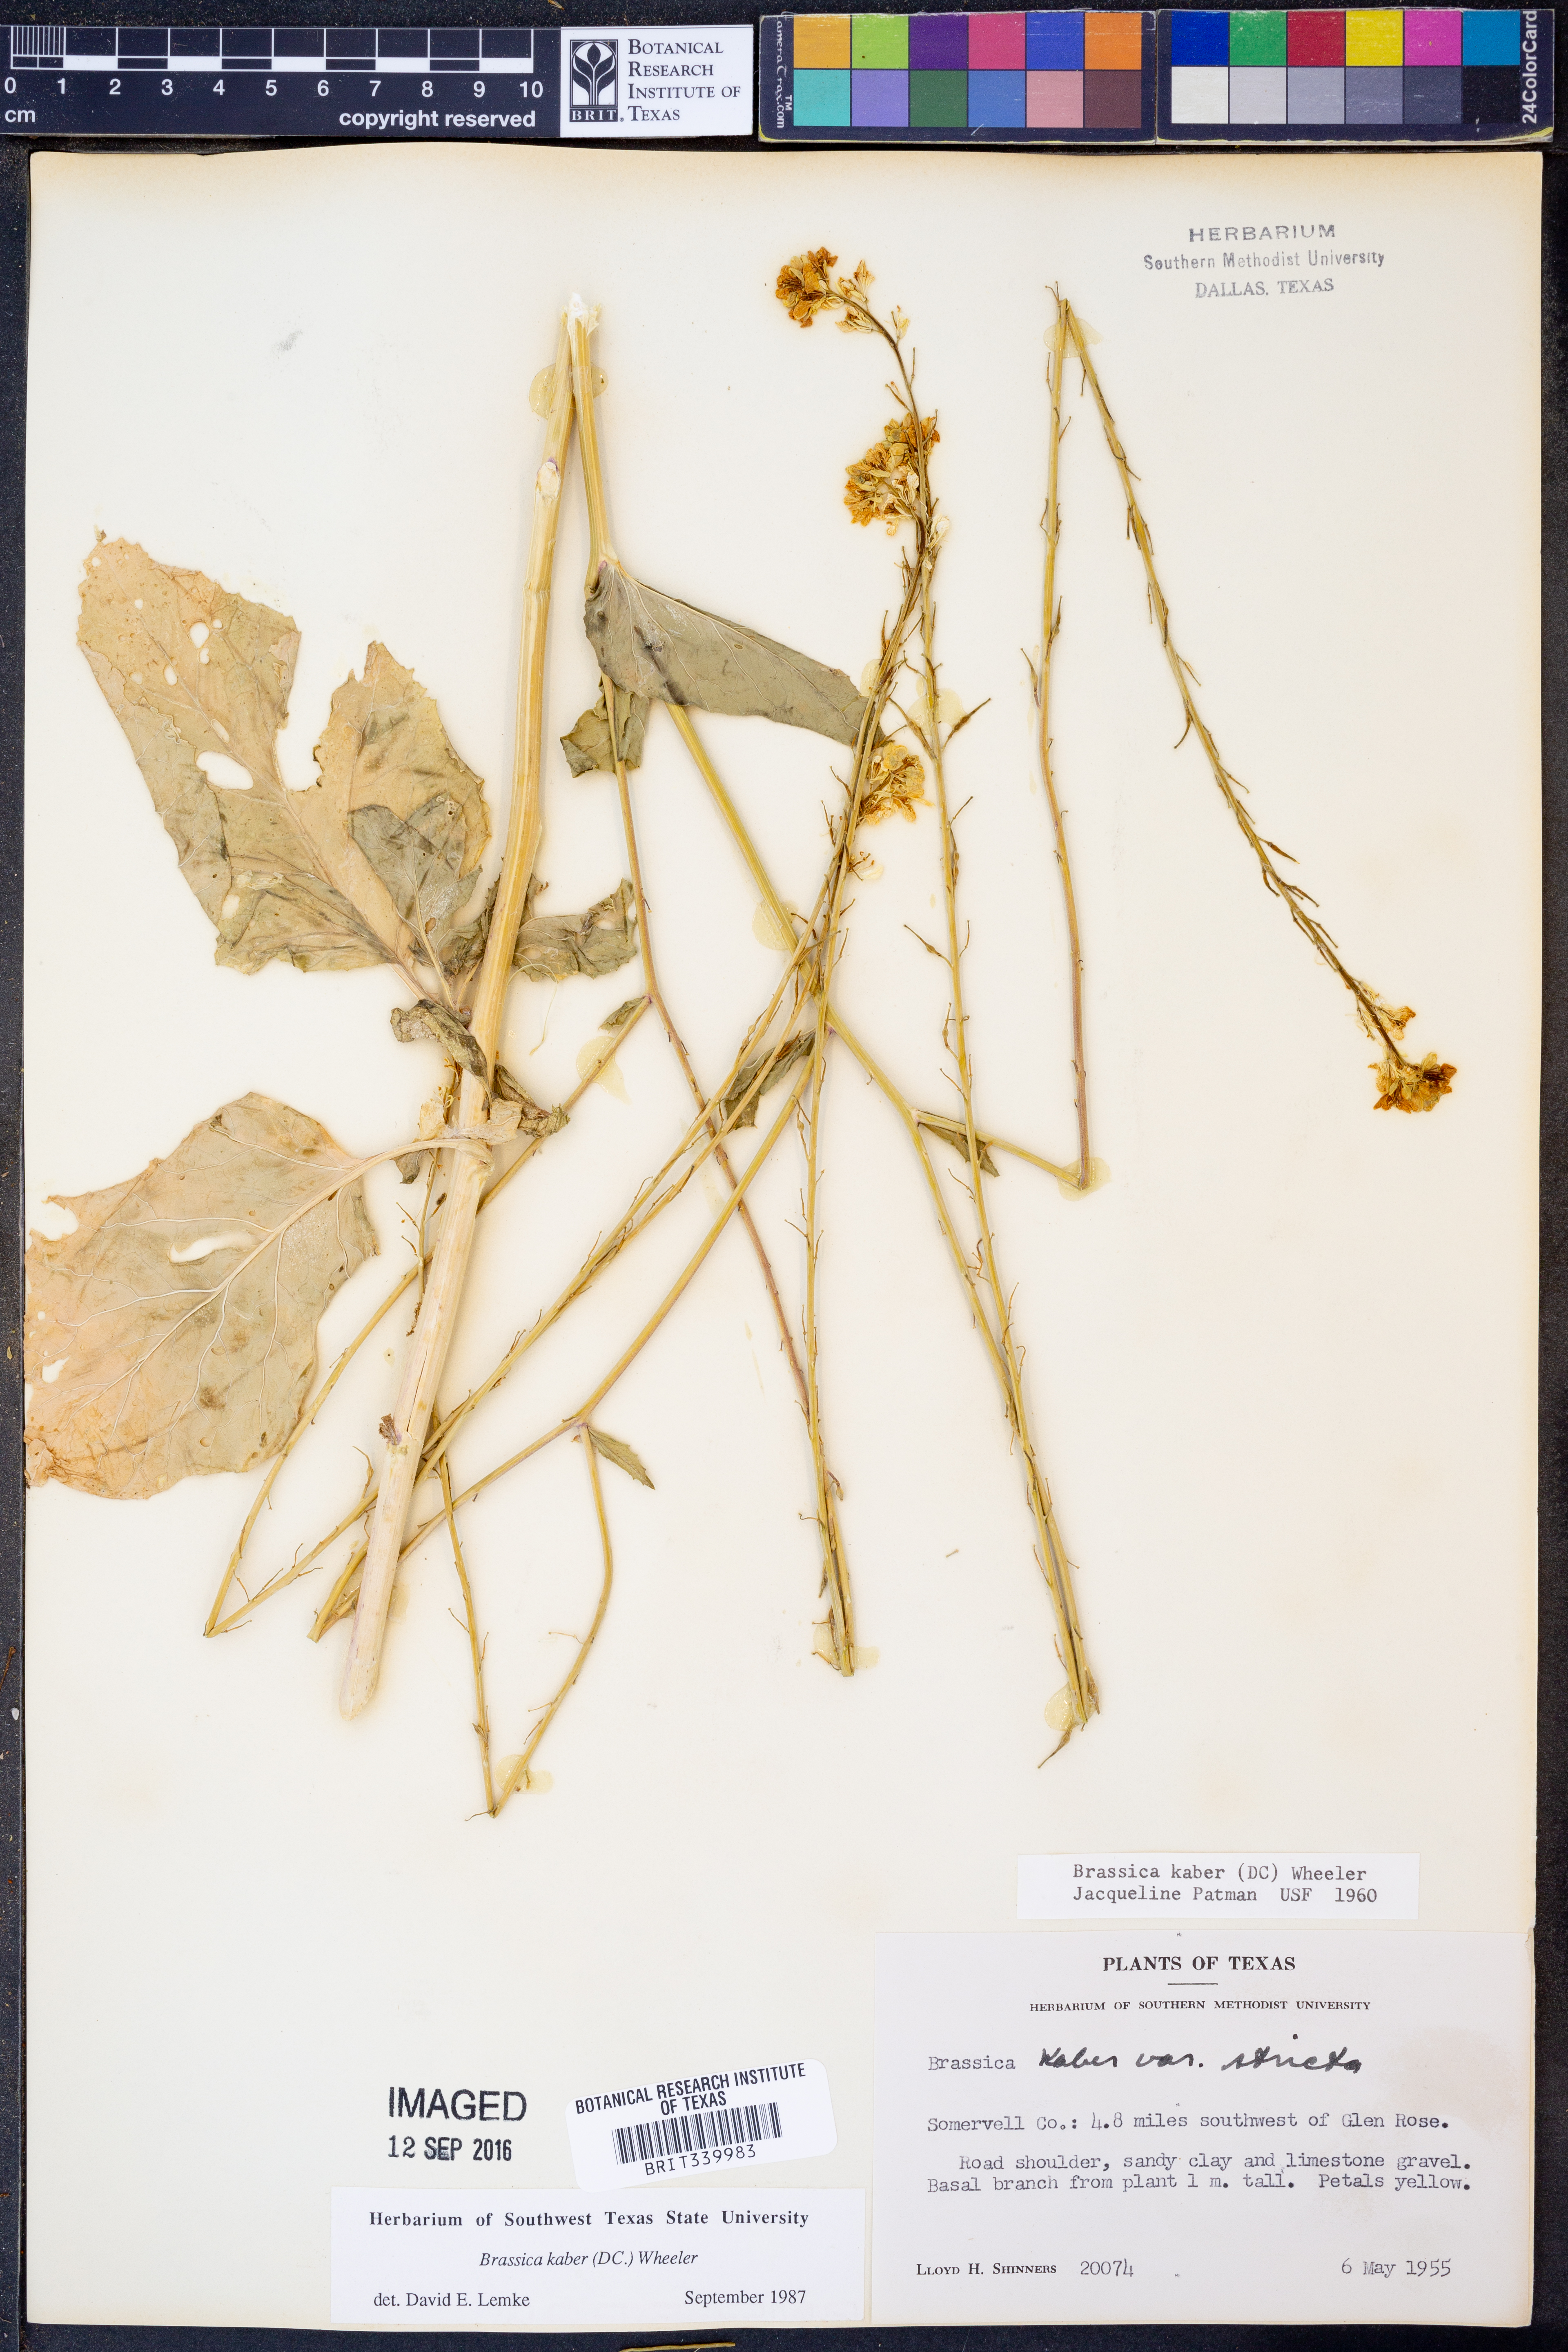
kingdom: Plantae
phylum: Tracheophyta
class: Magnoliopsida
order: Brassicales
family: Brassicaceae
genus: Sinapis
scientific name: Sinapis arvensis
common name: Charlock
